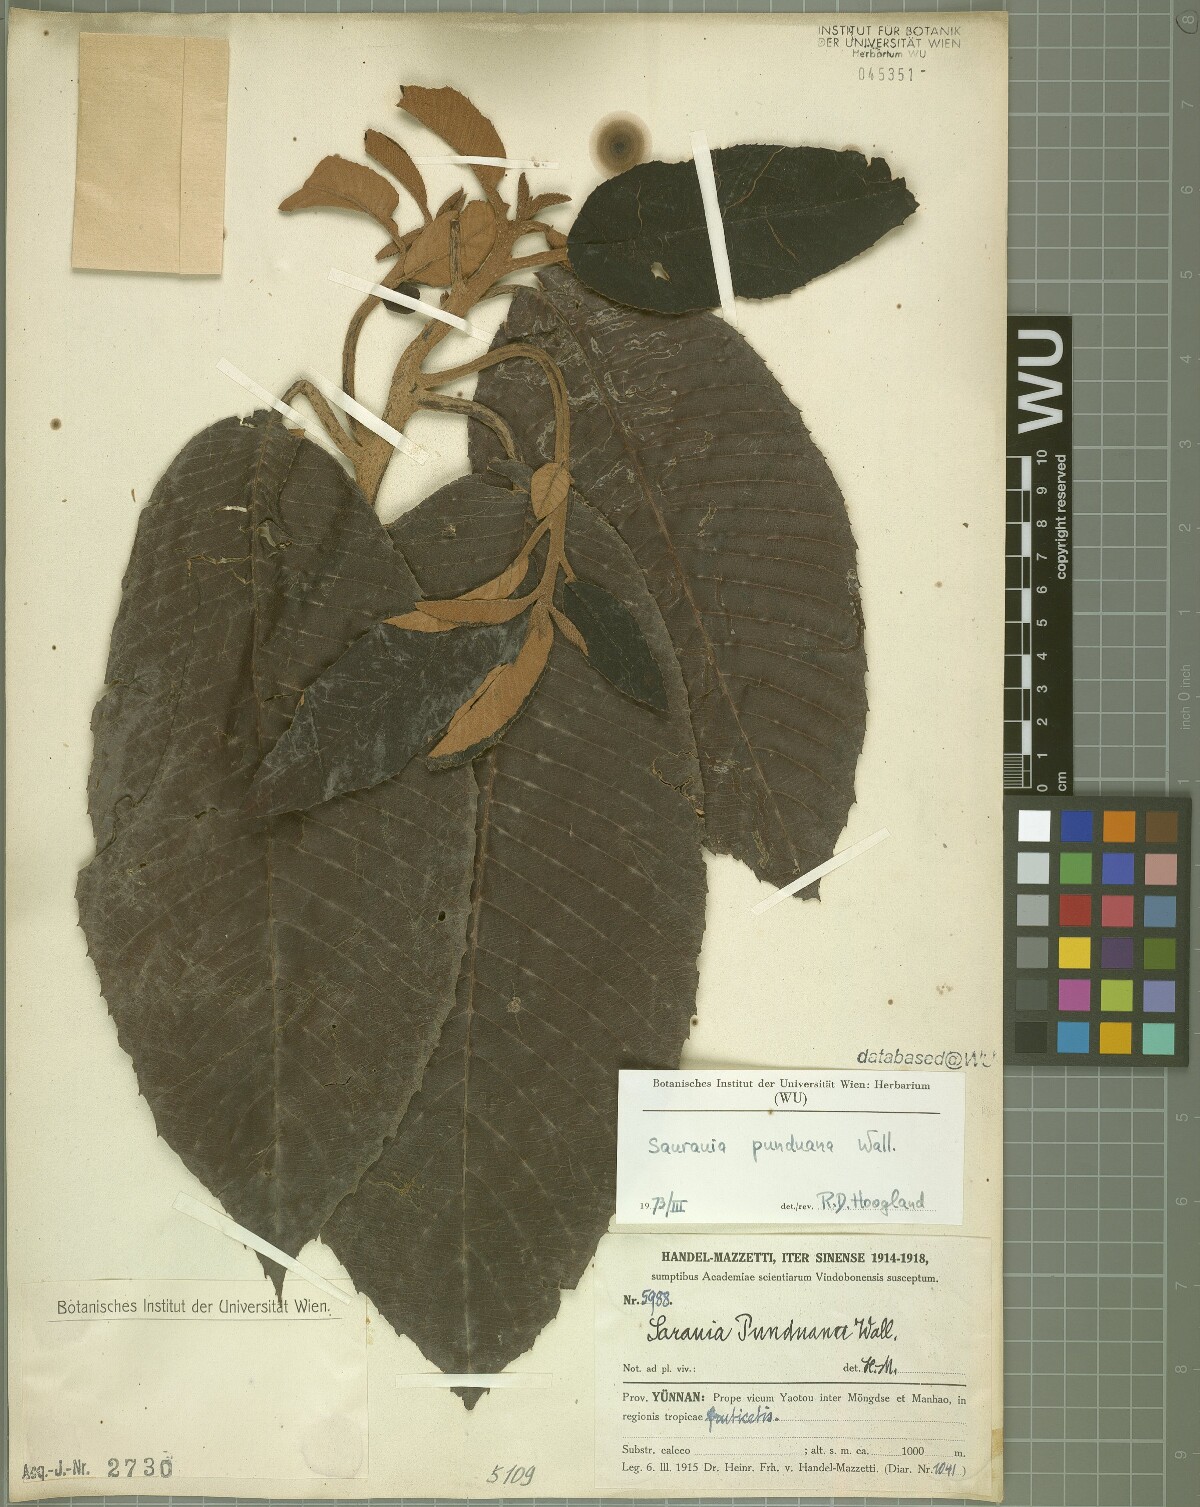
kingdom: Plantae
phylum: Tracheophyta
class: Magnoliopsida
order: Ericales
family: Actinidiaceae
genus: Saurauia
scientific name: Saurauia punduana
